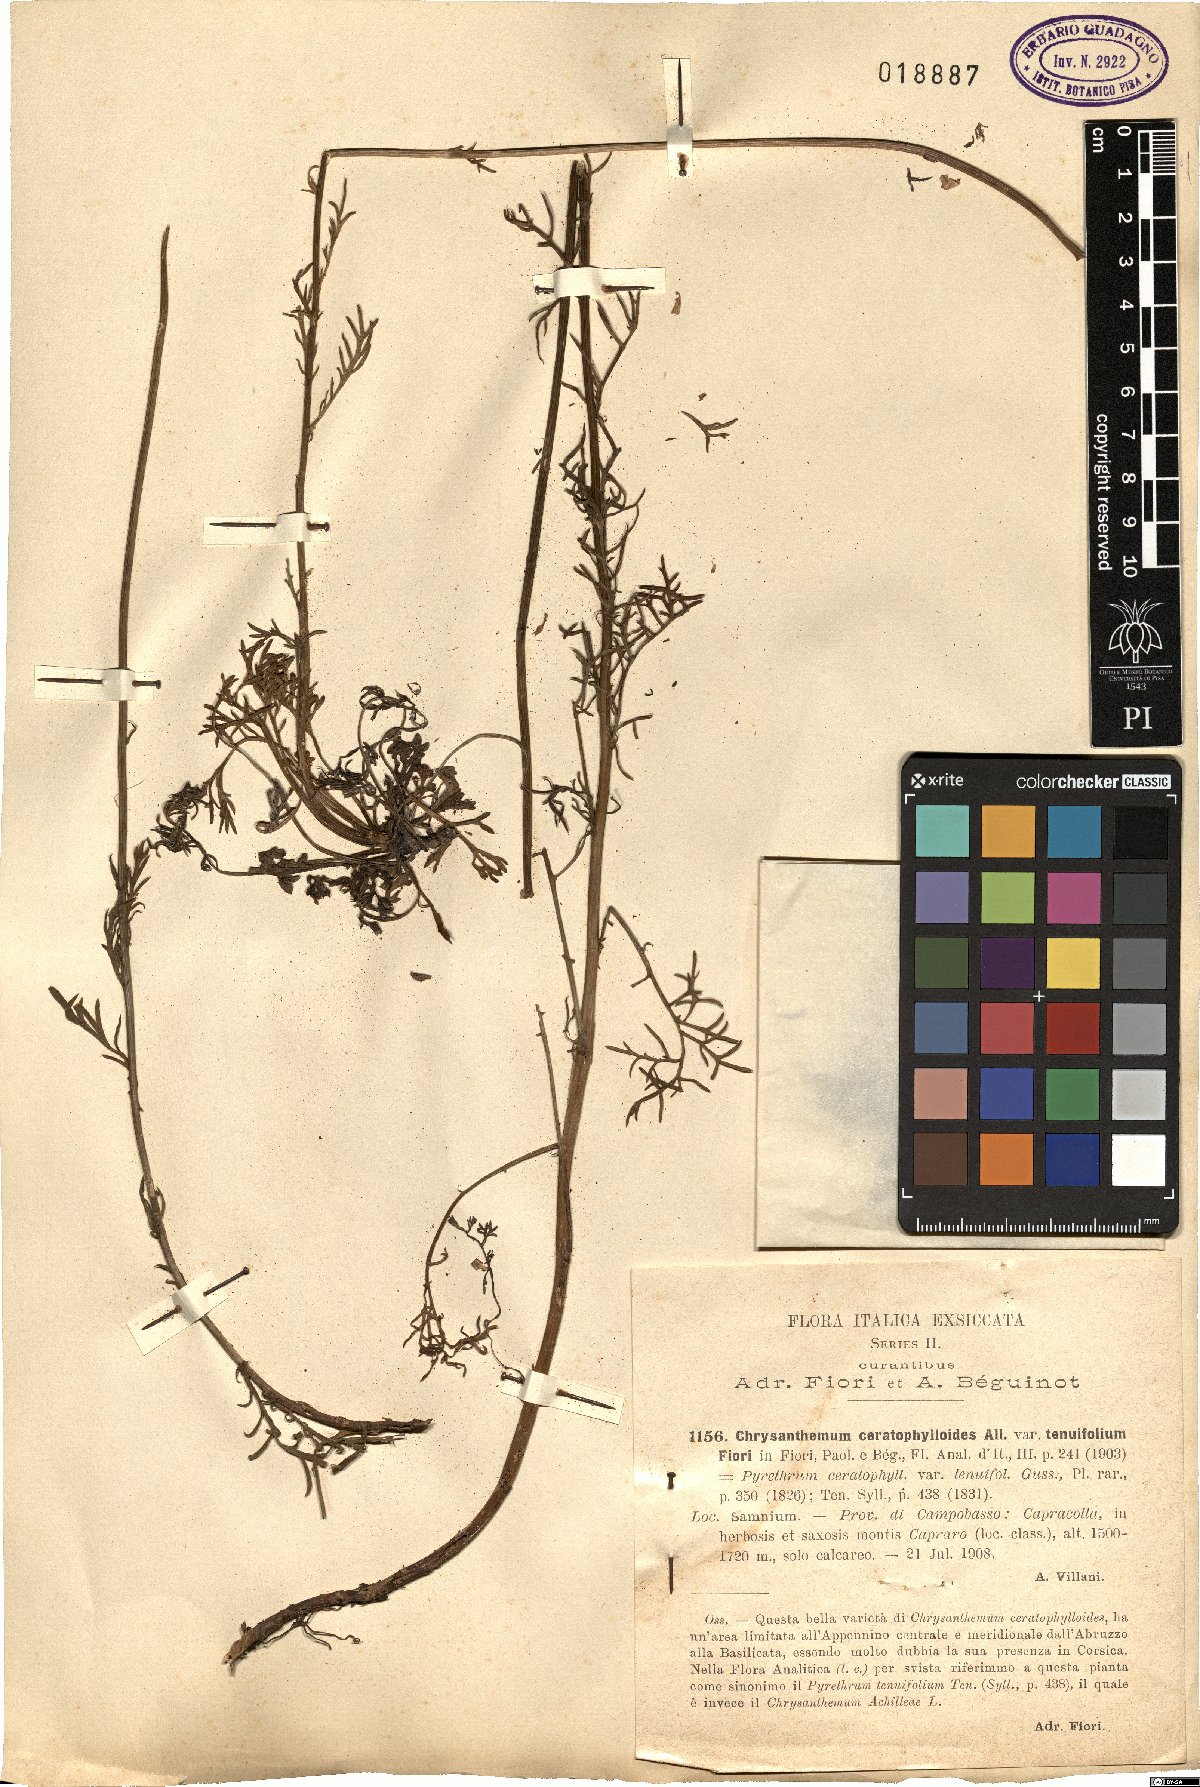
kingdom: Plantae
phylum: Tracheophyta
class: Magnoliopsida
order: Asterales
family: Asteraceae
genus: Leucanthemum
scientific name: Leucanthemum coronopifolium
